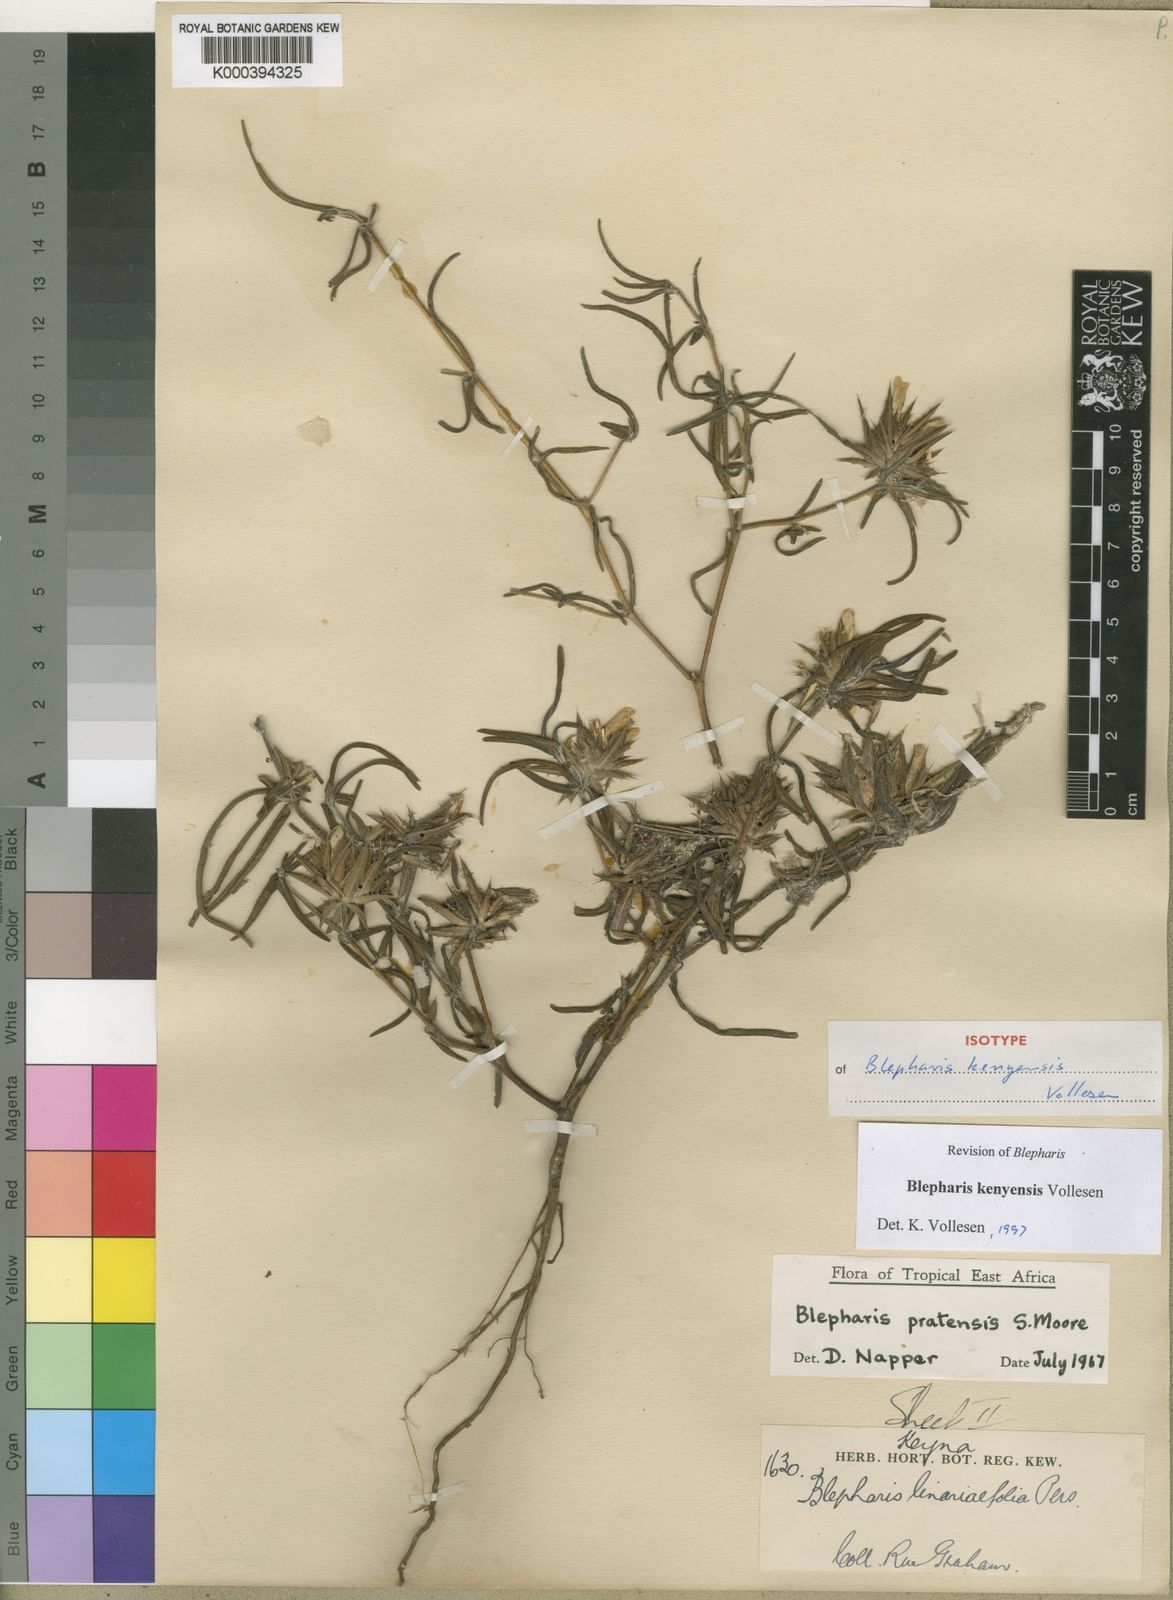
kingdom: Plantae
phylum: Tracheophyta
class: Magnoliopsida
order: Lamiales
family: Acanthaceae
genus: Blepharis
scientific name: Blepharis kenyensis
